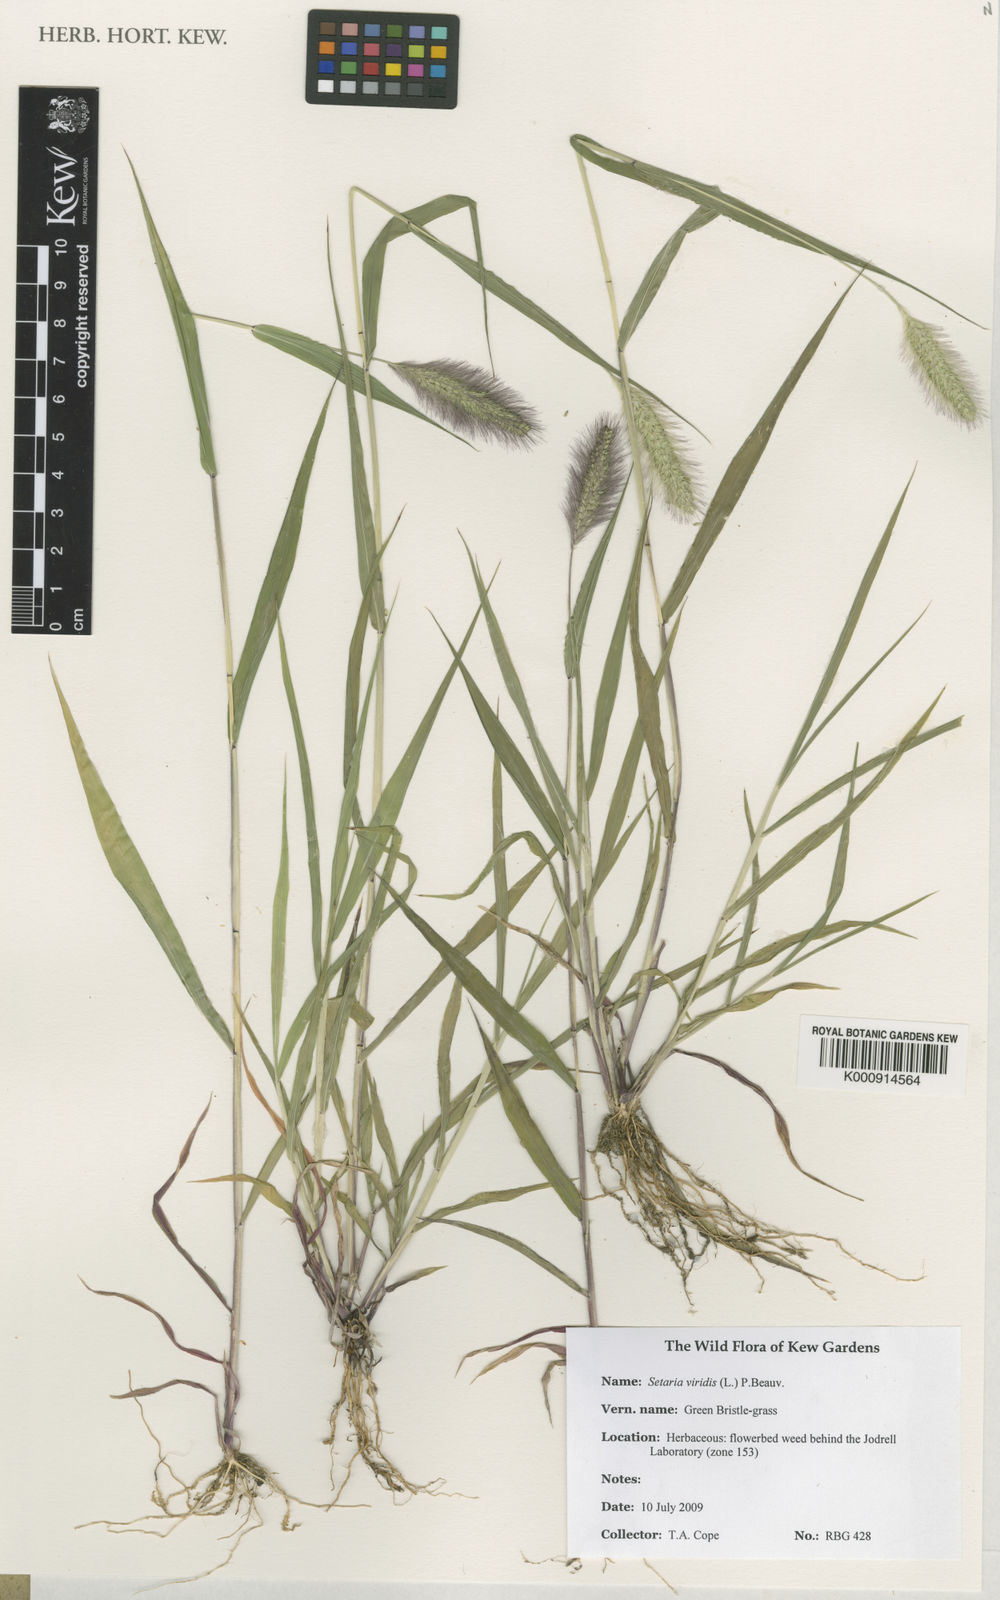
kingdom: Plantae
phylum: Tracheophyta
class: Liliopsida
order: Poales
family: Poaceae
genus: Setaria
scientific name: Setaria viridis
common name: Green bristlegrass
